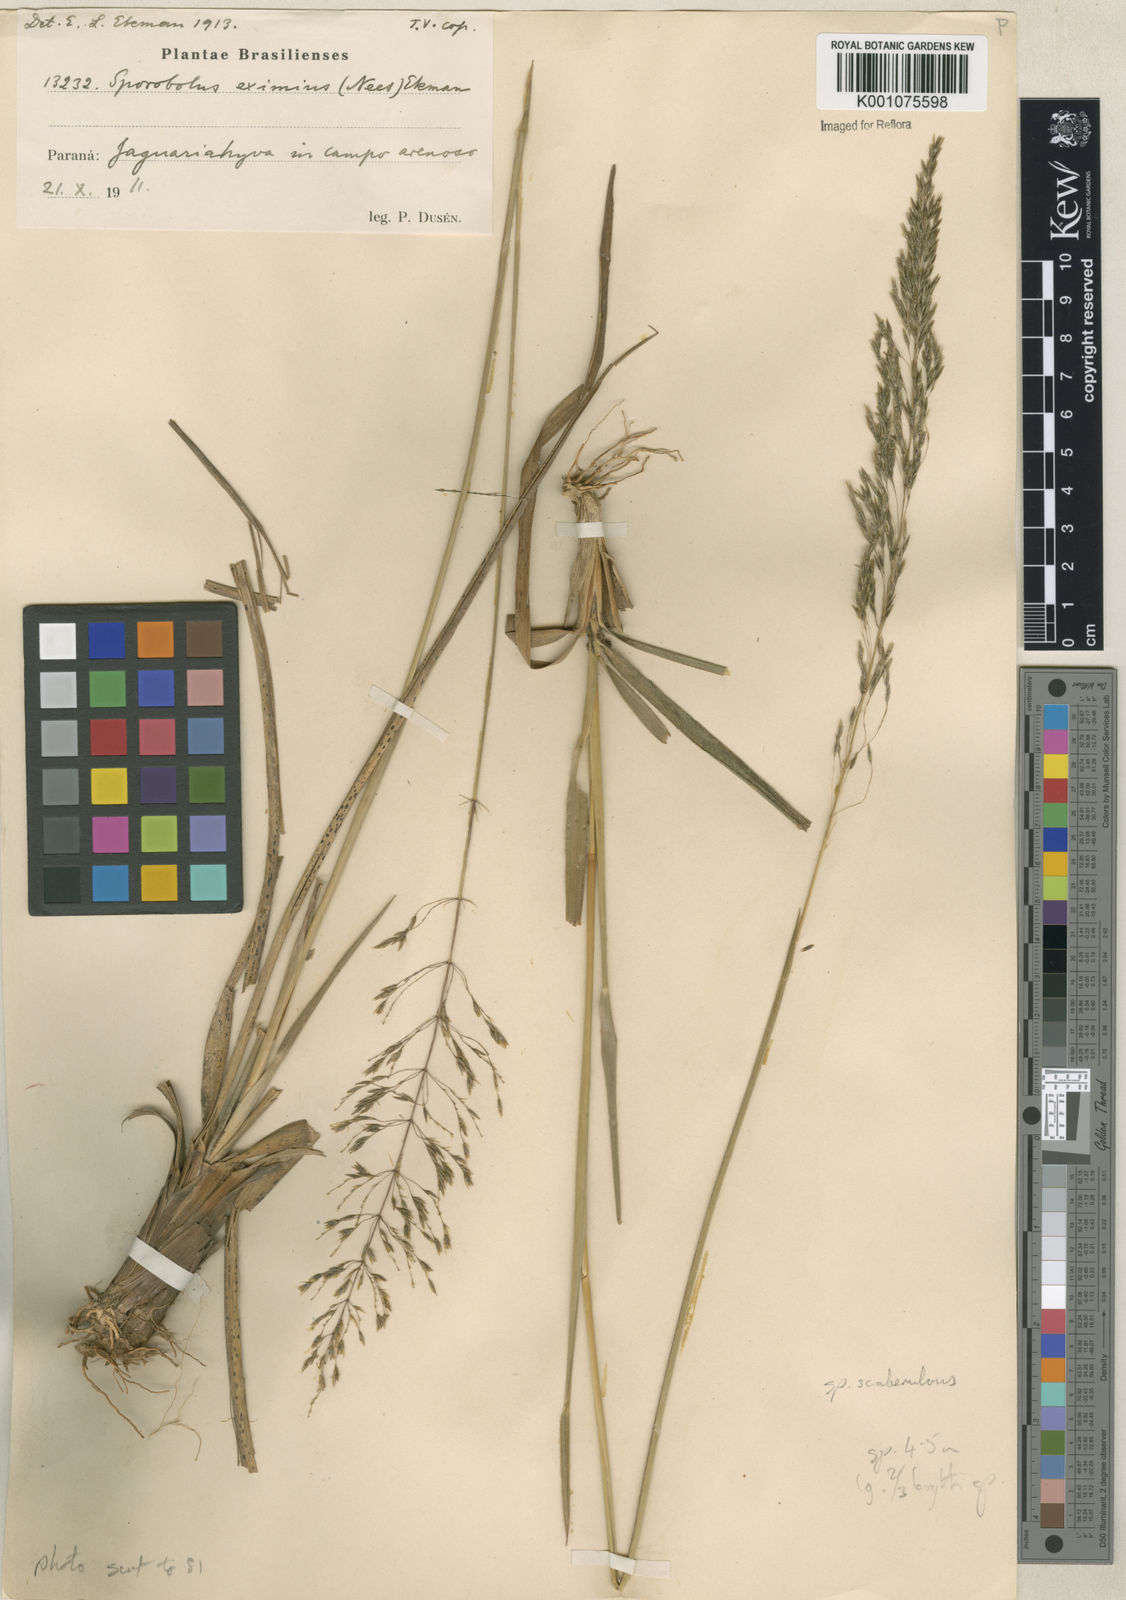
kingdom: Plantae
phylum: Tracheophyta
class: Liliopsida
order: Poales
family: Poaceae
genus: Sporobolus
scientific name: Sporobolus eximius
